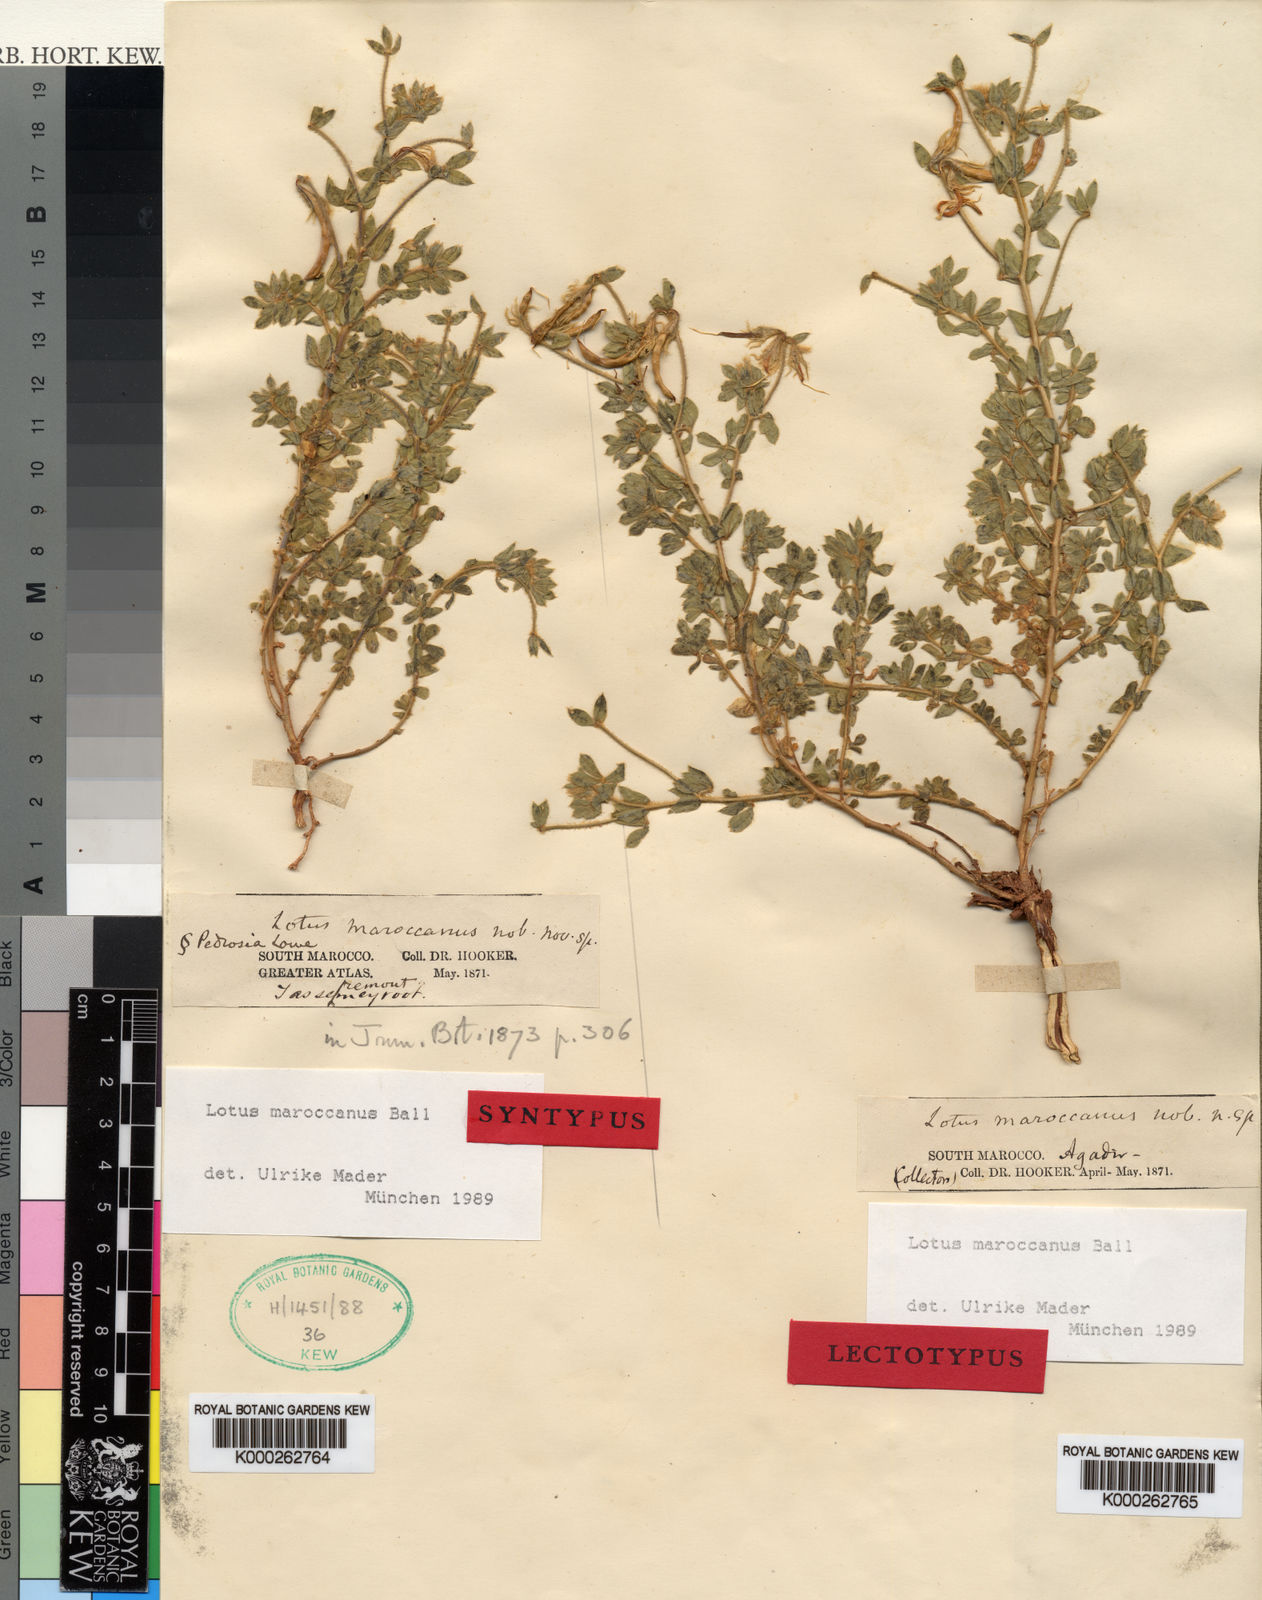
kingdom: Plantae
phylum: Tracheophyta
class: Magnoliopsida
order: Fabales
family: Fabaceae
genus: Lotus
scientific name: Lotus maroccanus
